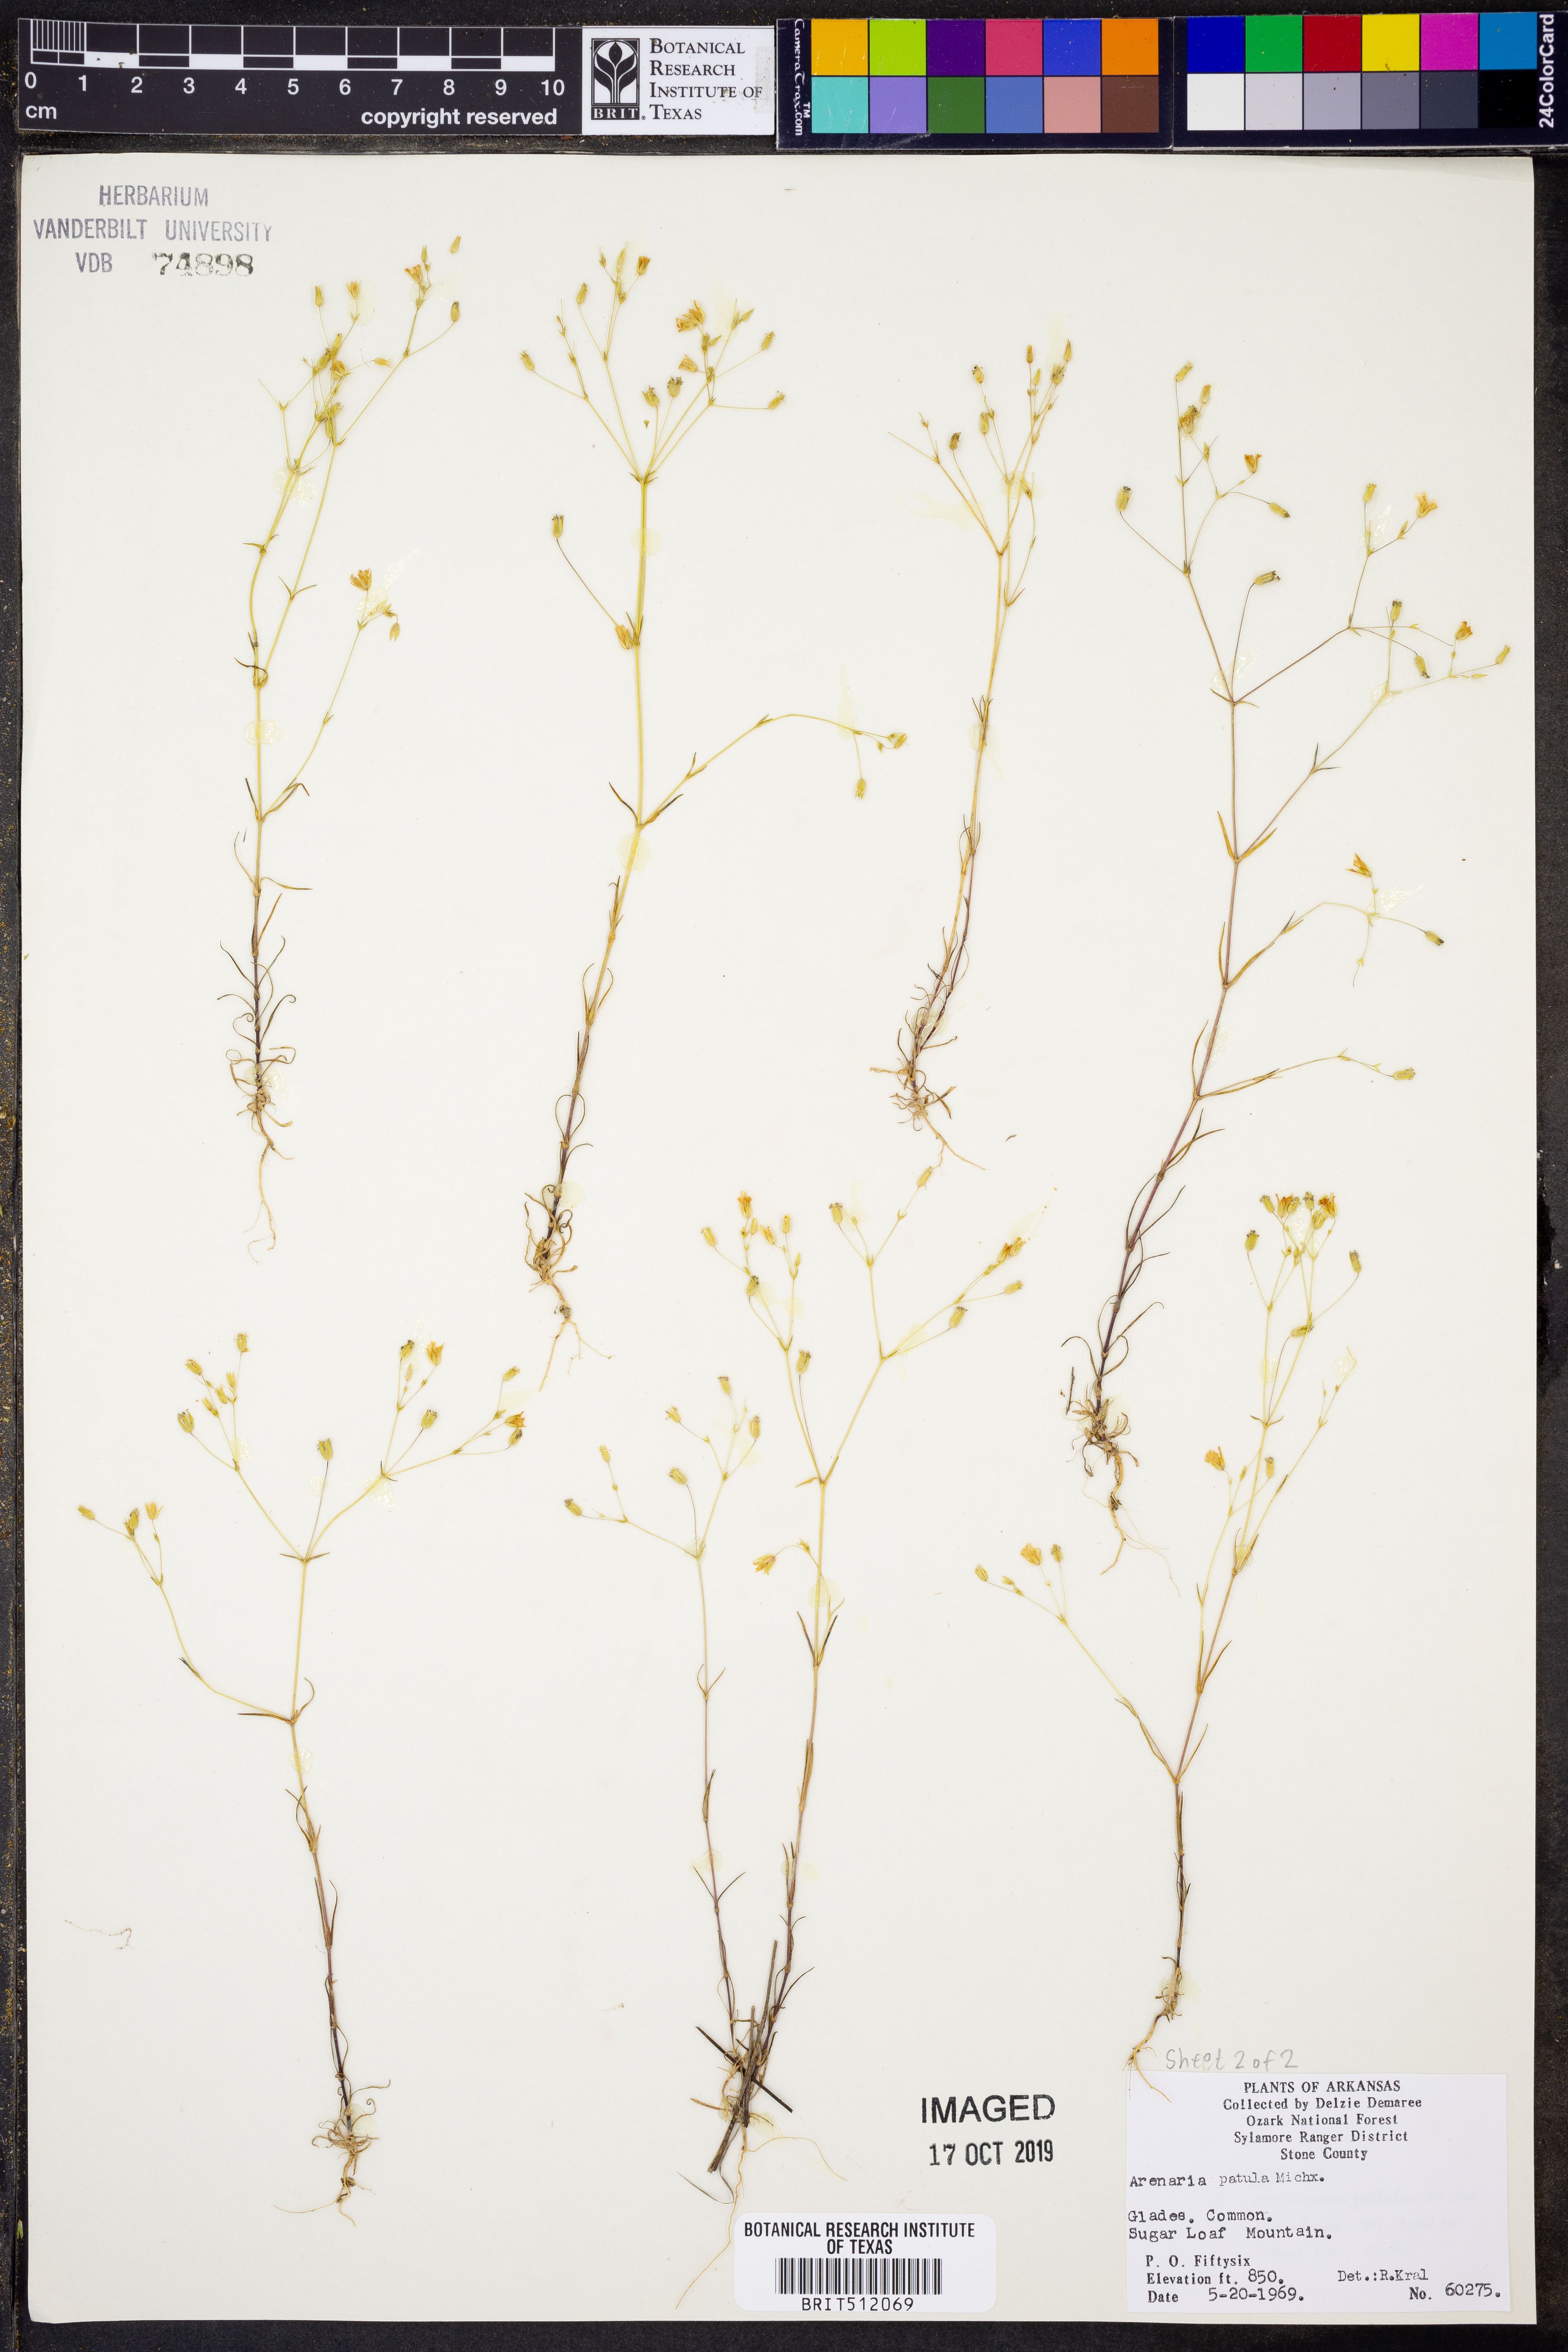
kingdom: Plantae
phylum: Tracheophyta
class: Magnoliopsida
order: Caryophyllales
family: Caryophyllaceae
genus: Mononeuria
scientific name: Mononeuria patula
